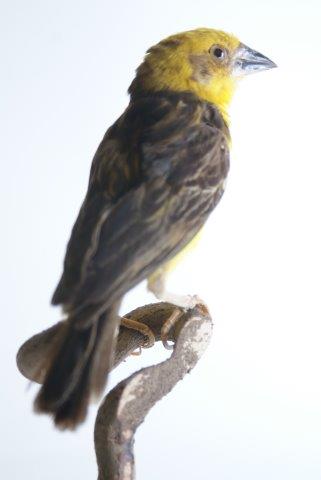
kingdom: Animalia
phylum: Chordata
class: Aves
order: Passeriformes
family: Ploceidae
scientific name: Ploceidae
